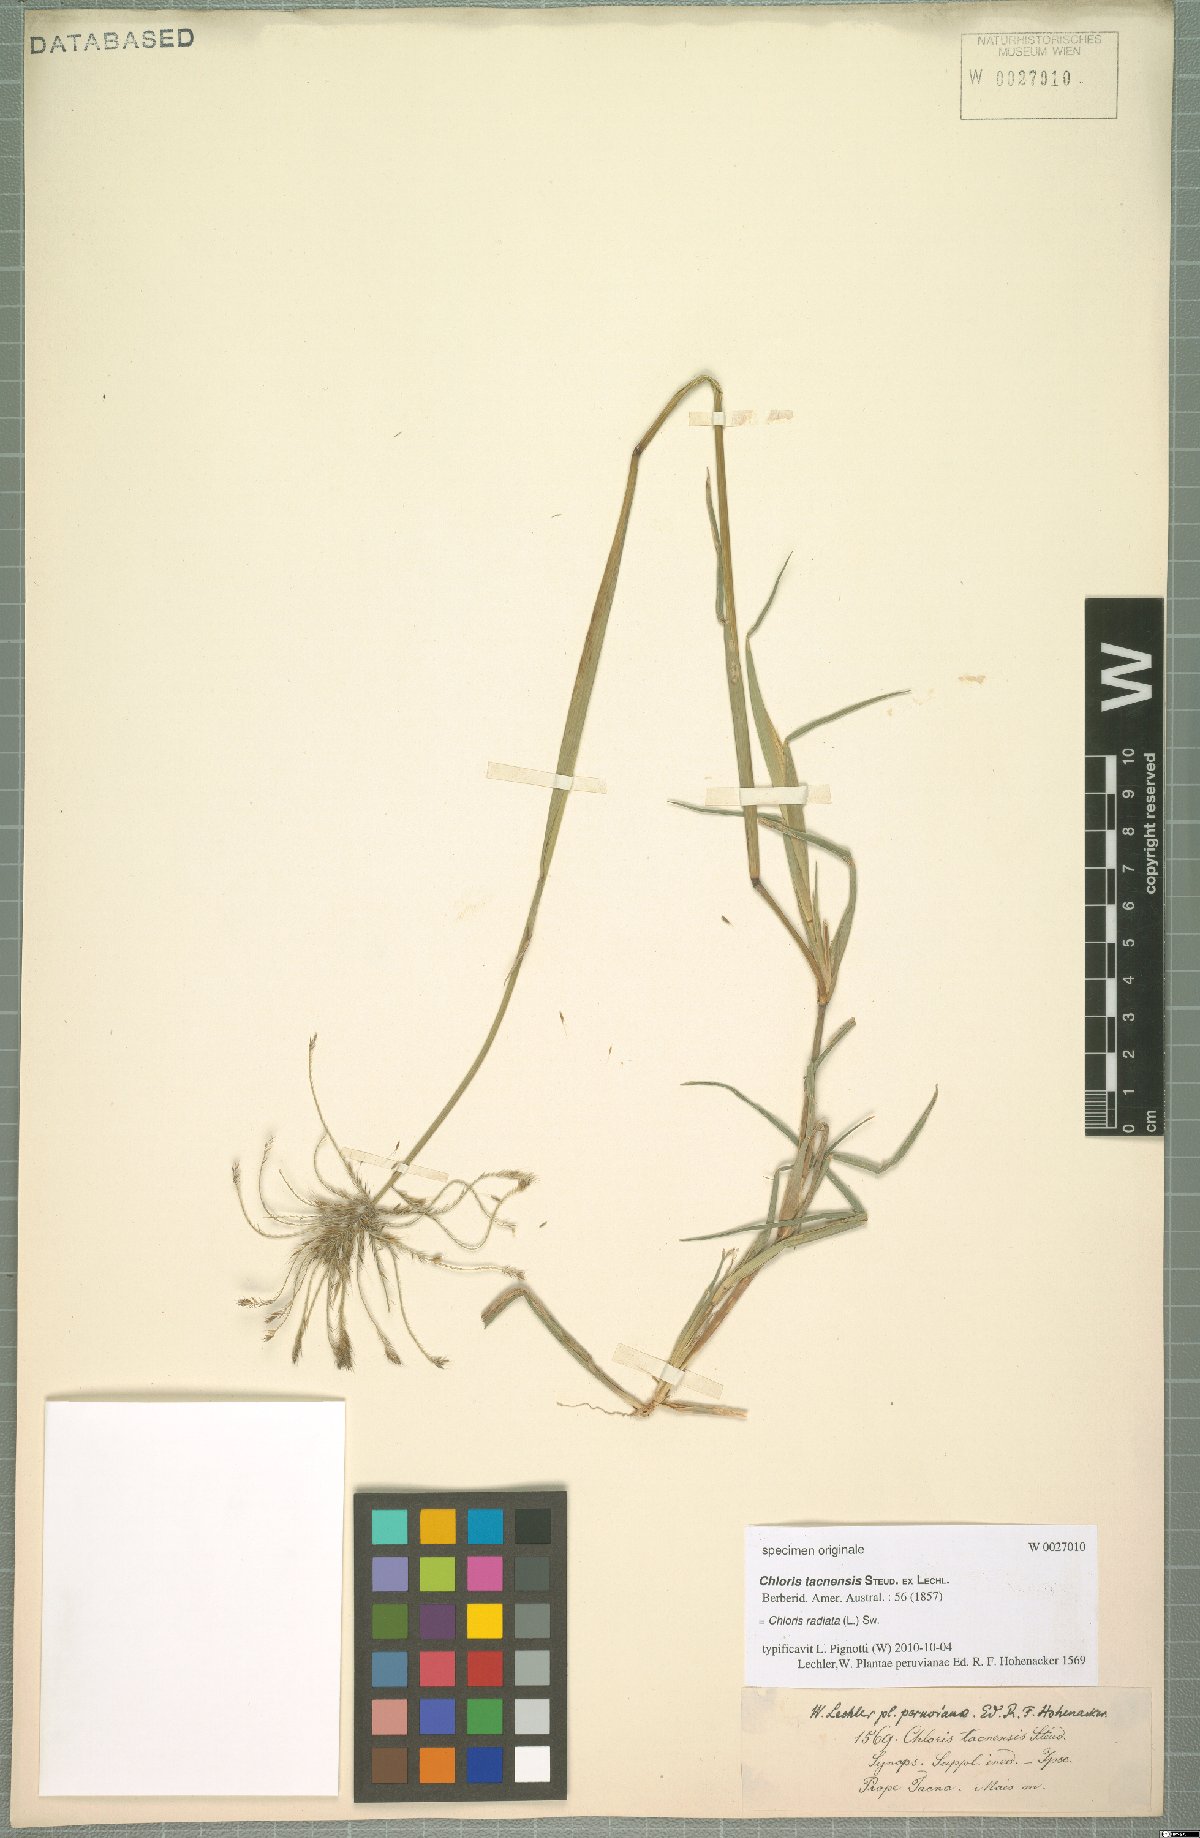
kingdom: Plantae
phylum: Tracheophyta
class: Liliopsida
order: Poales
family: Poaceae
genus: Chloris
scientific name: Chloris radiata
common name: Radiate fingergrass
